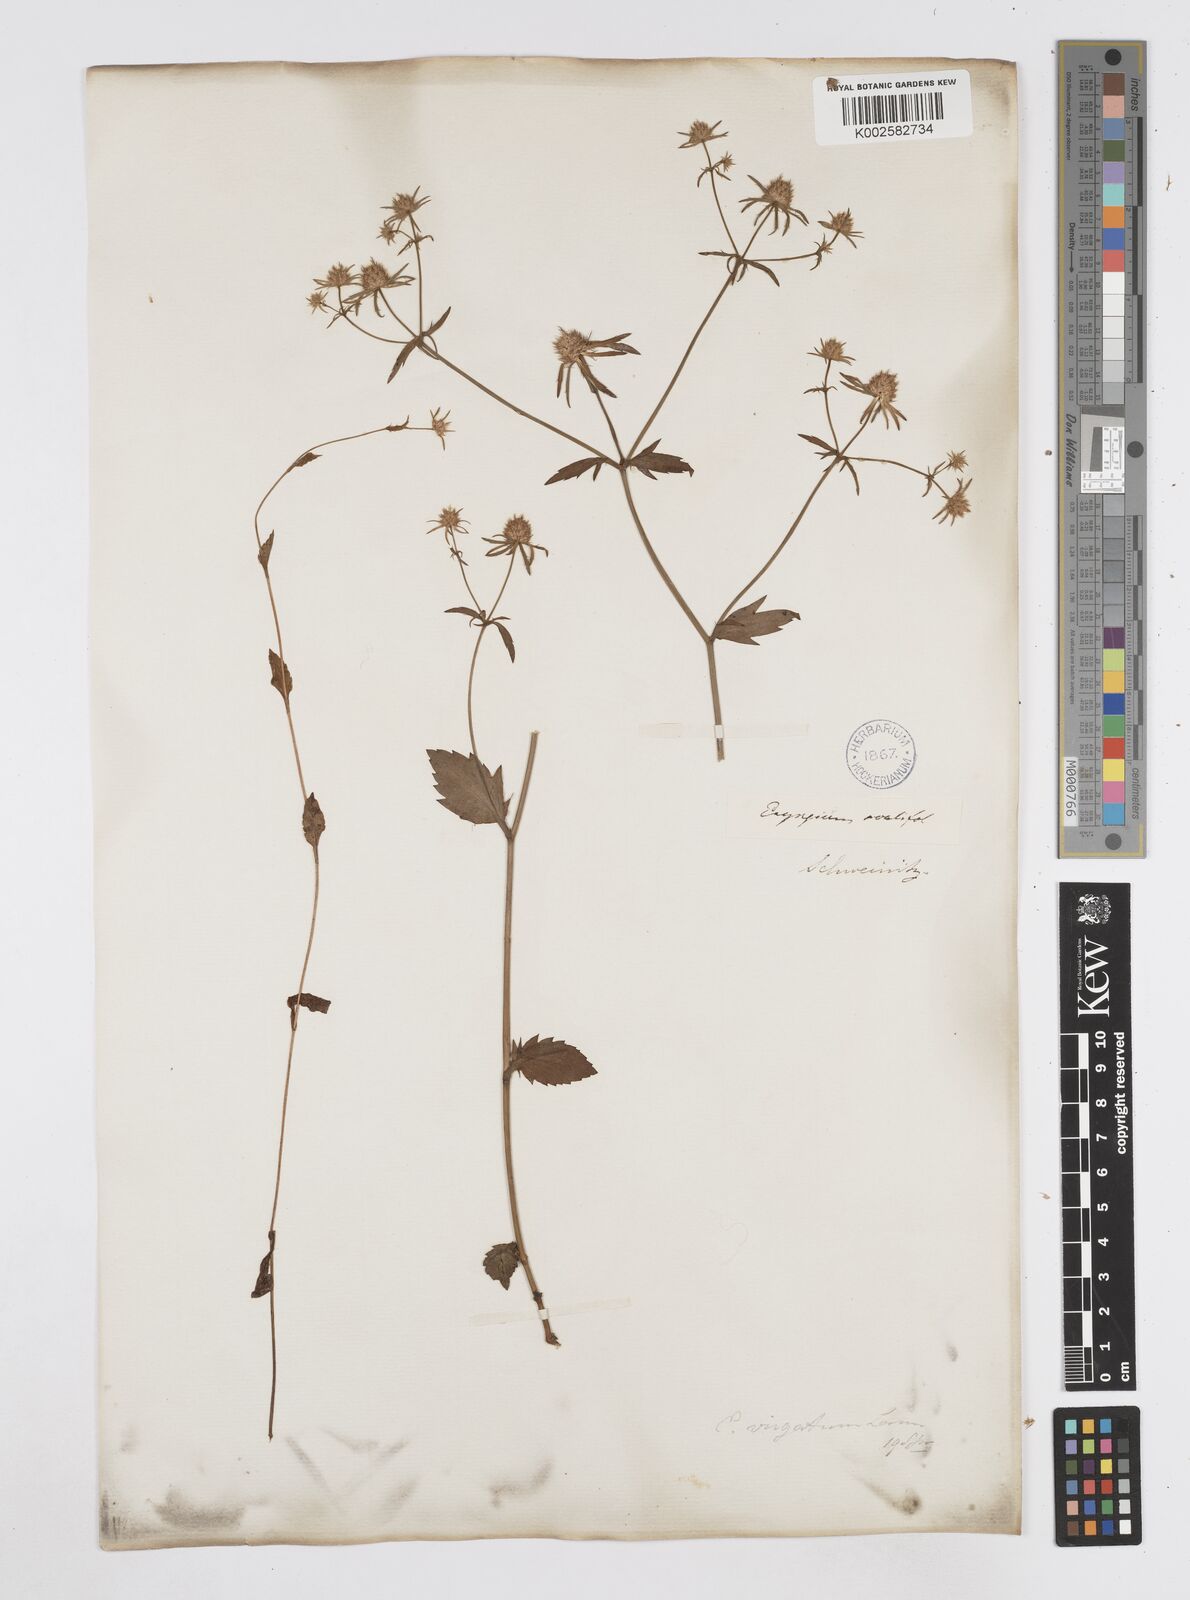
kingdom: Plantae
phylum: Tracheophyta
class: Magnoliopsida
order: Apiales
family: Apiaceae
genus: Eryngium
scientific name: Eryngium integrifolium
